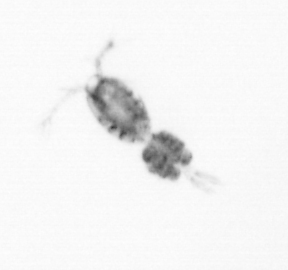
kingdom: Animalia
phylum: Arthropoda
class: Copepoda
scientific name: Copepoda
